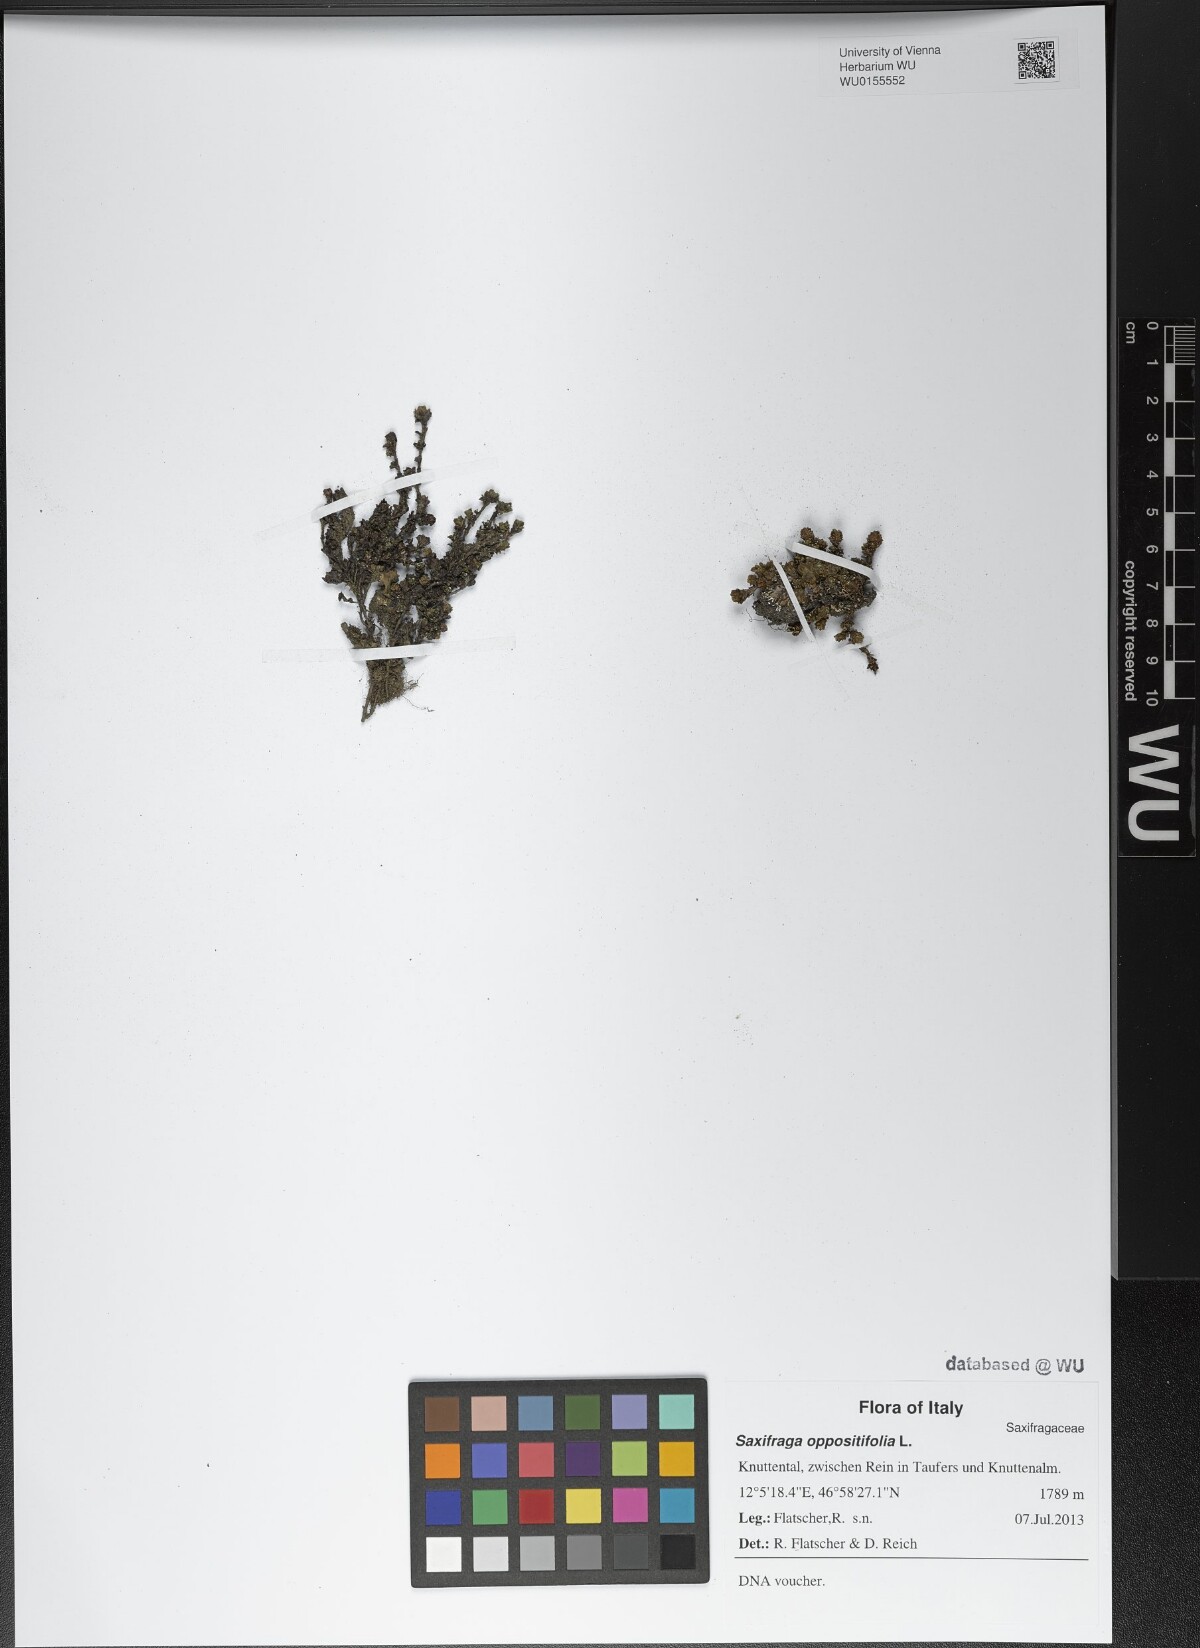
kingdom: Plantae
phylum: Tracheophyta
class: Magnoliopsida
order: Saxifragales
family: Saxifragaceae
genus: Saxifraga
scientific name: Saxifraga oppositifolia
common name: Purple saxifrage
